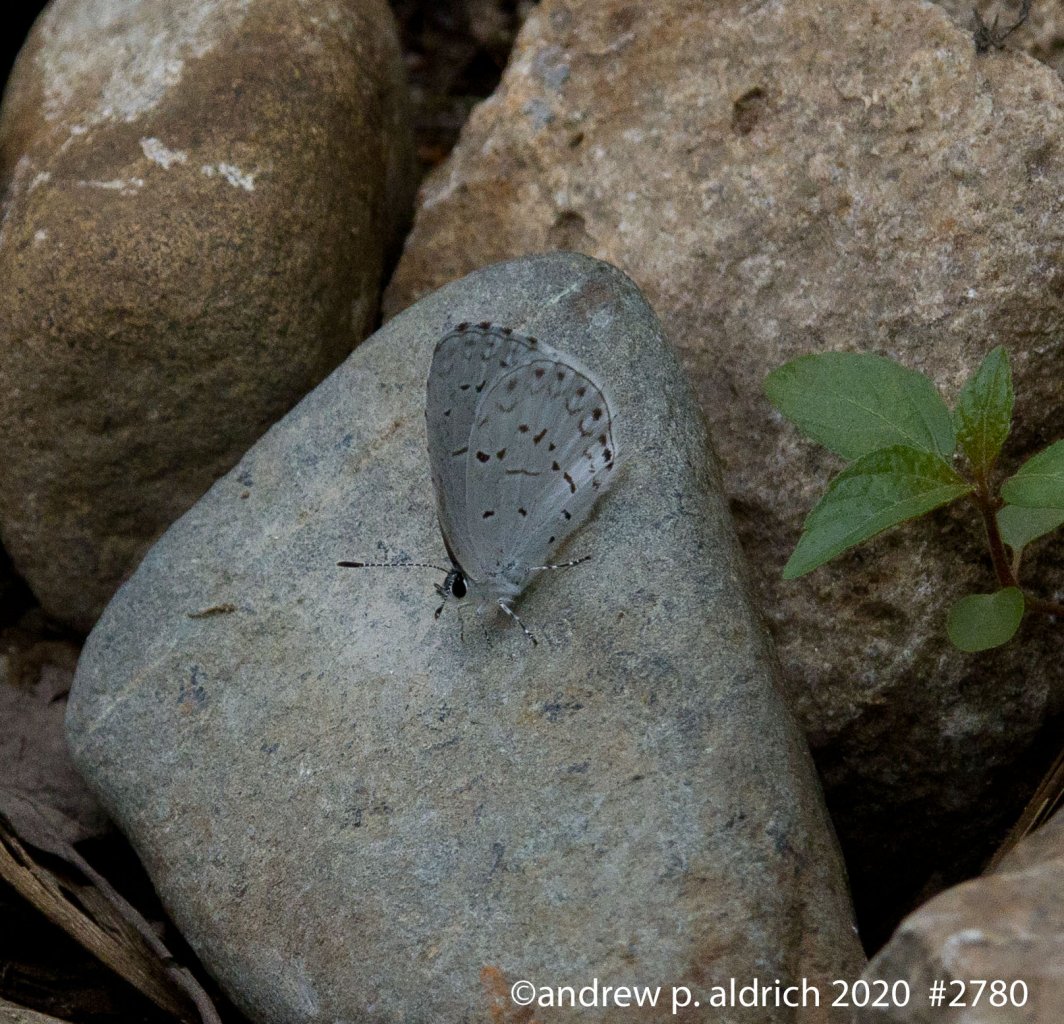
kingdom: Animalia
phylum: Arthropoda
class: Insecta
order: Lepidoptera
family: Lycaenidae
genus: Celastrina
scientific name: Celastrina
